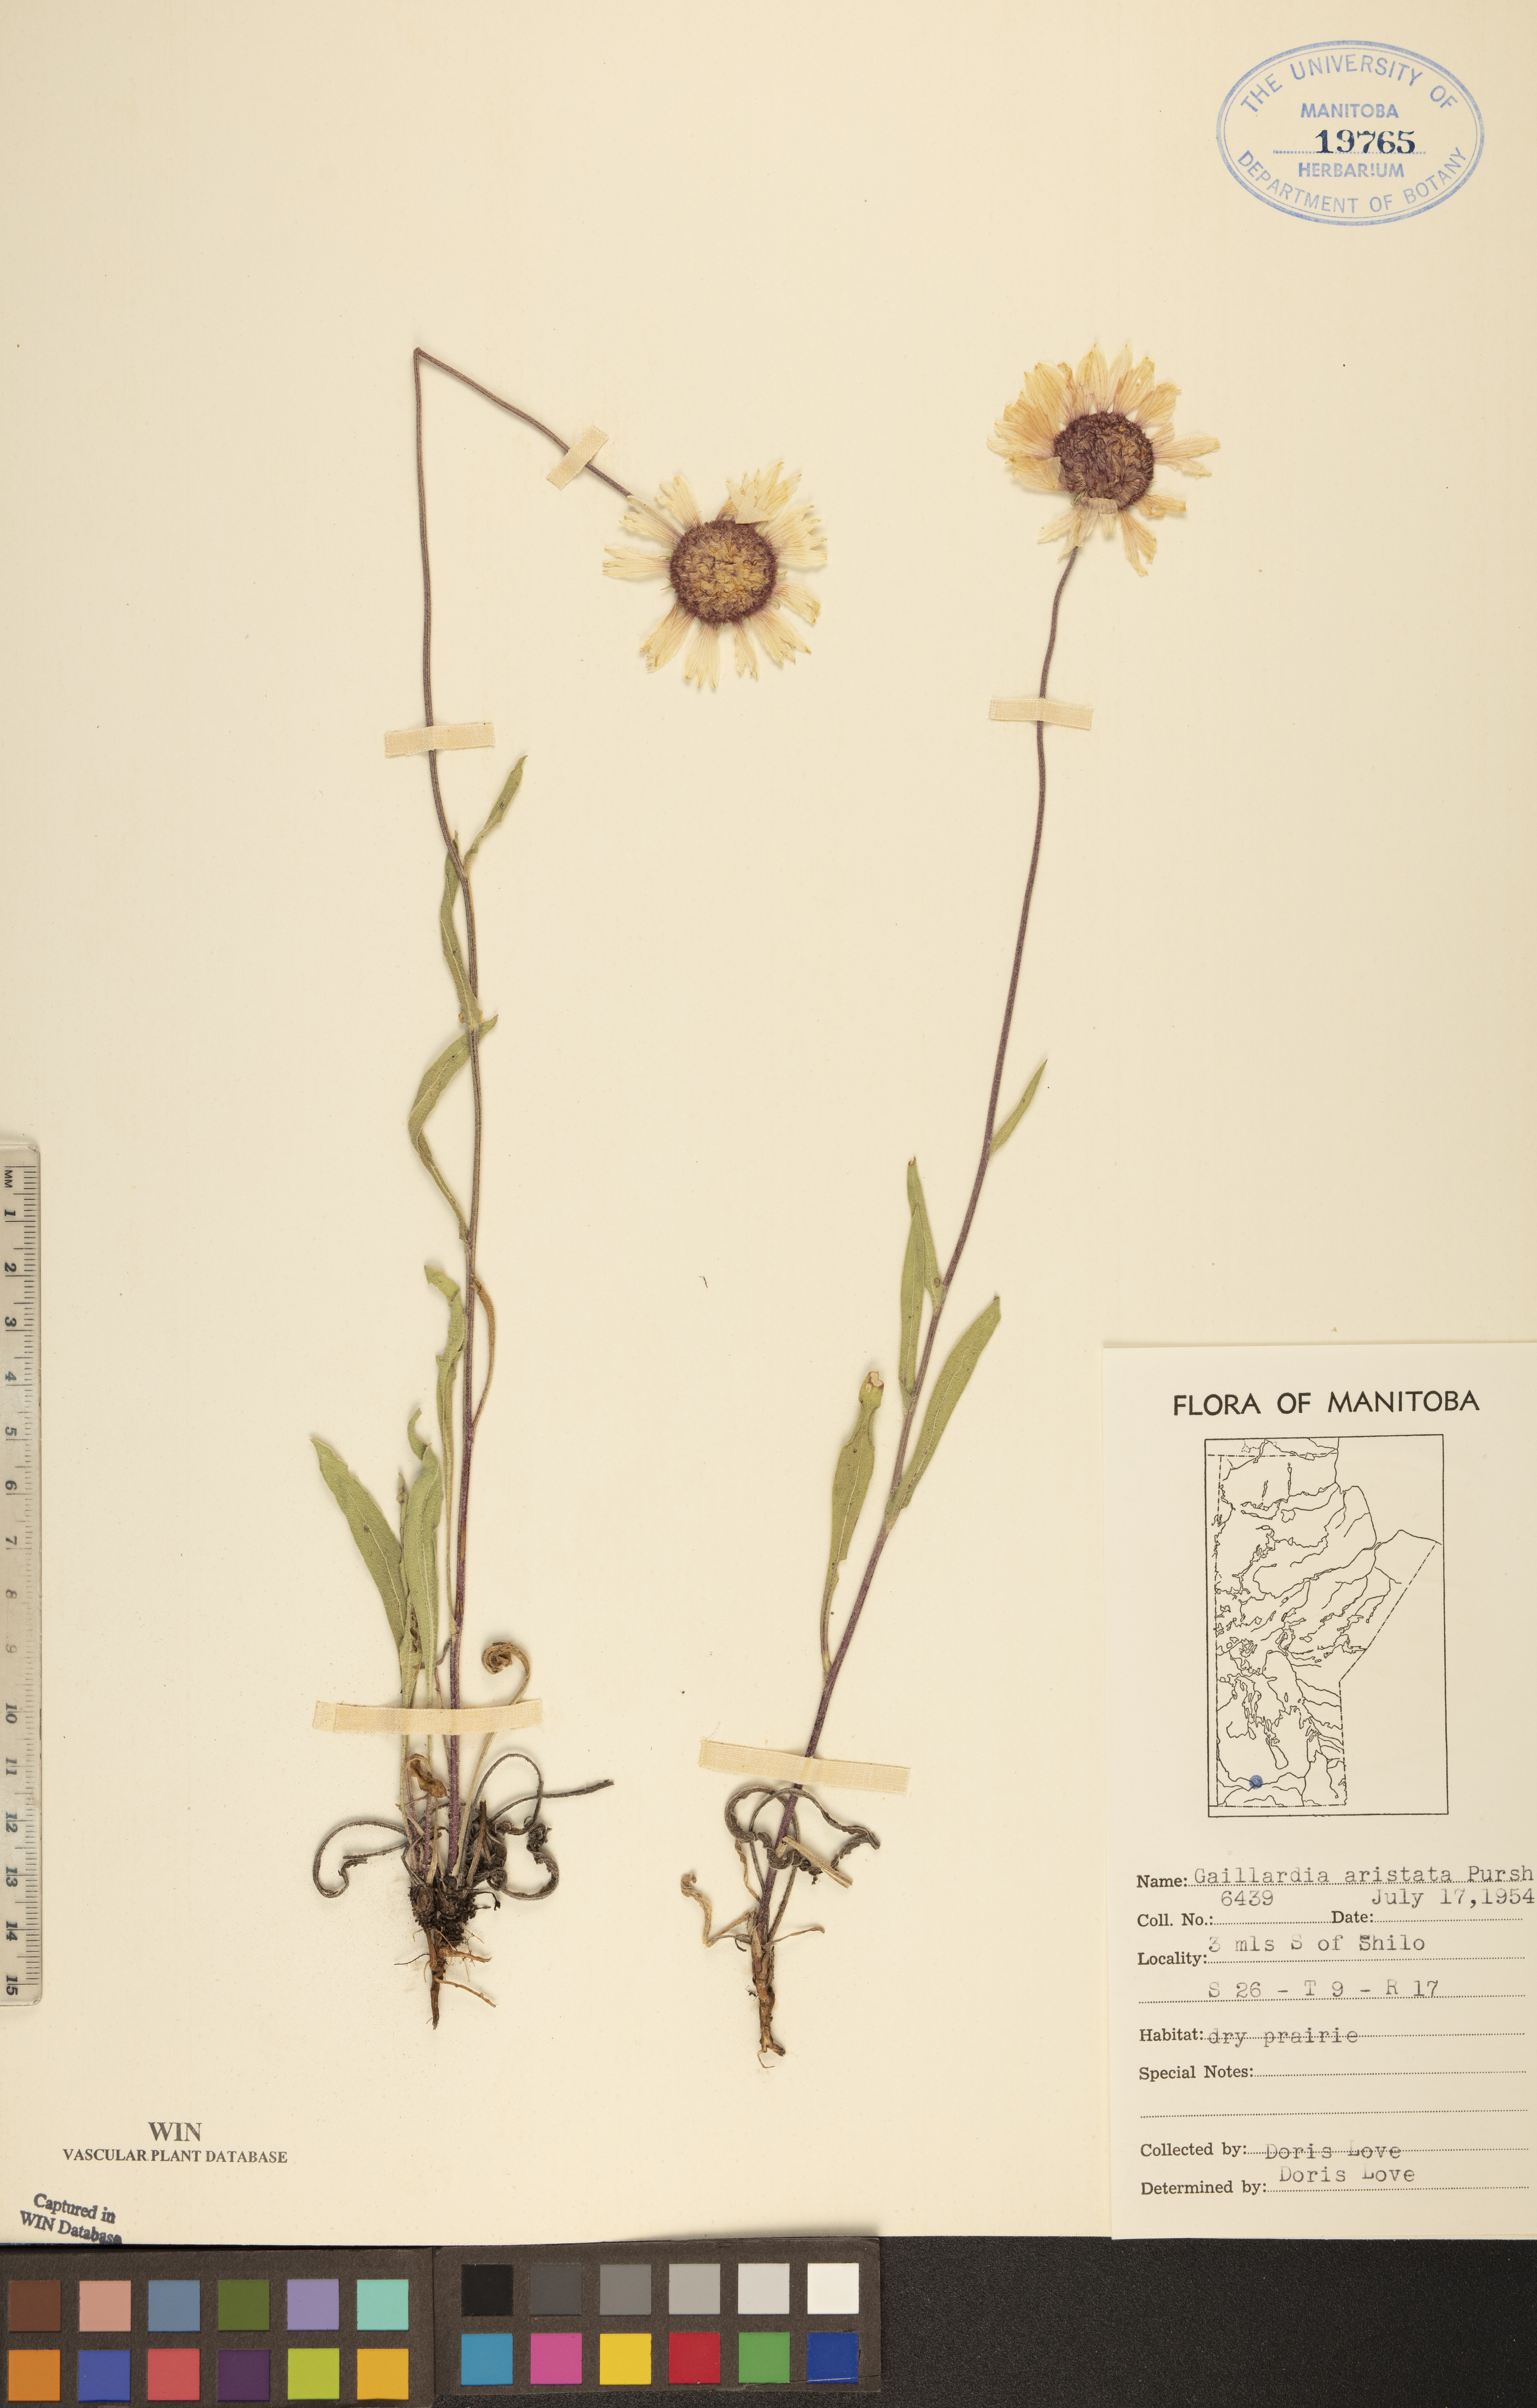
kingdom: Plantae
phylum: Tracheophyta
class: Magnoliopsida
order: Asterales
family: Asteraceae
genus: Gaillardia
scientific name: Gaillardia aristata
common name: Blanket-flower
